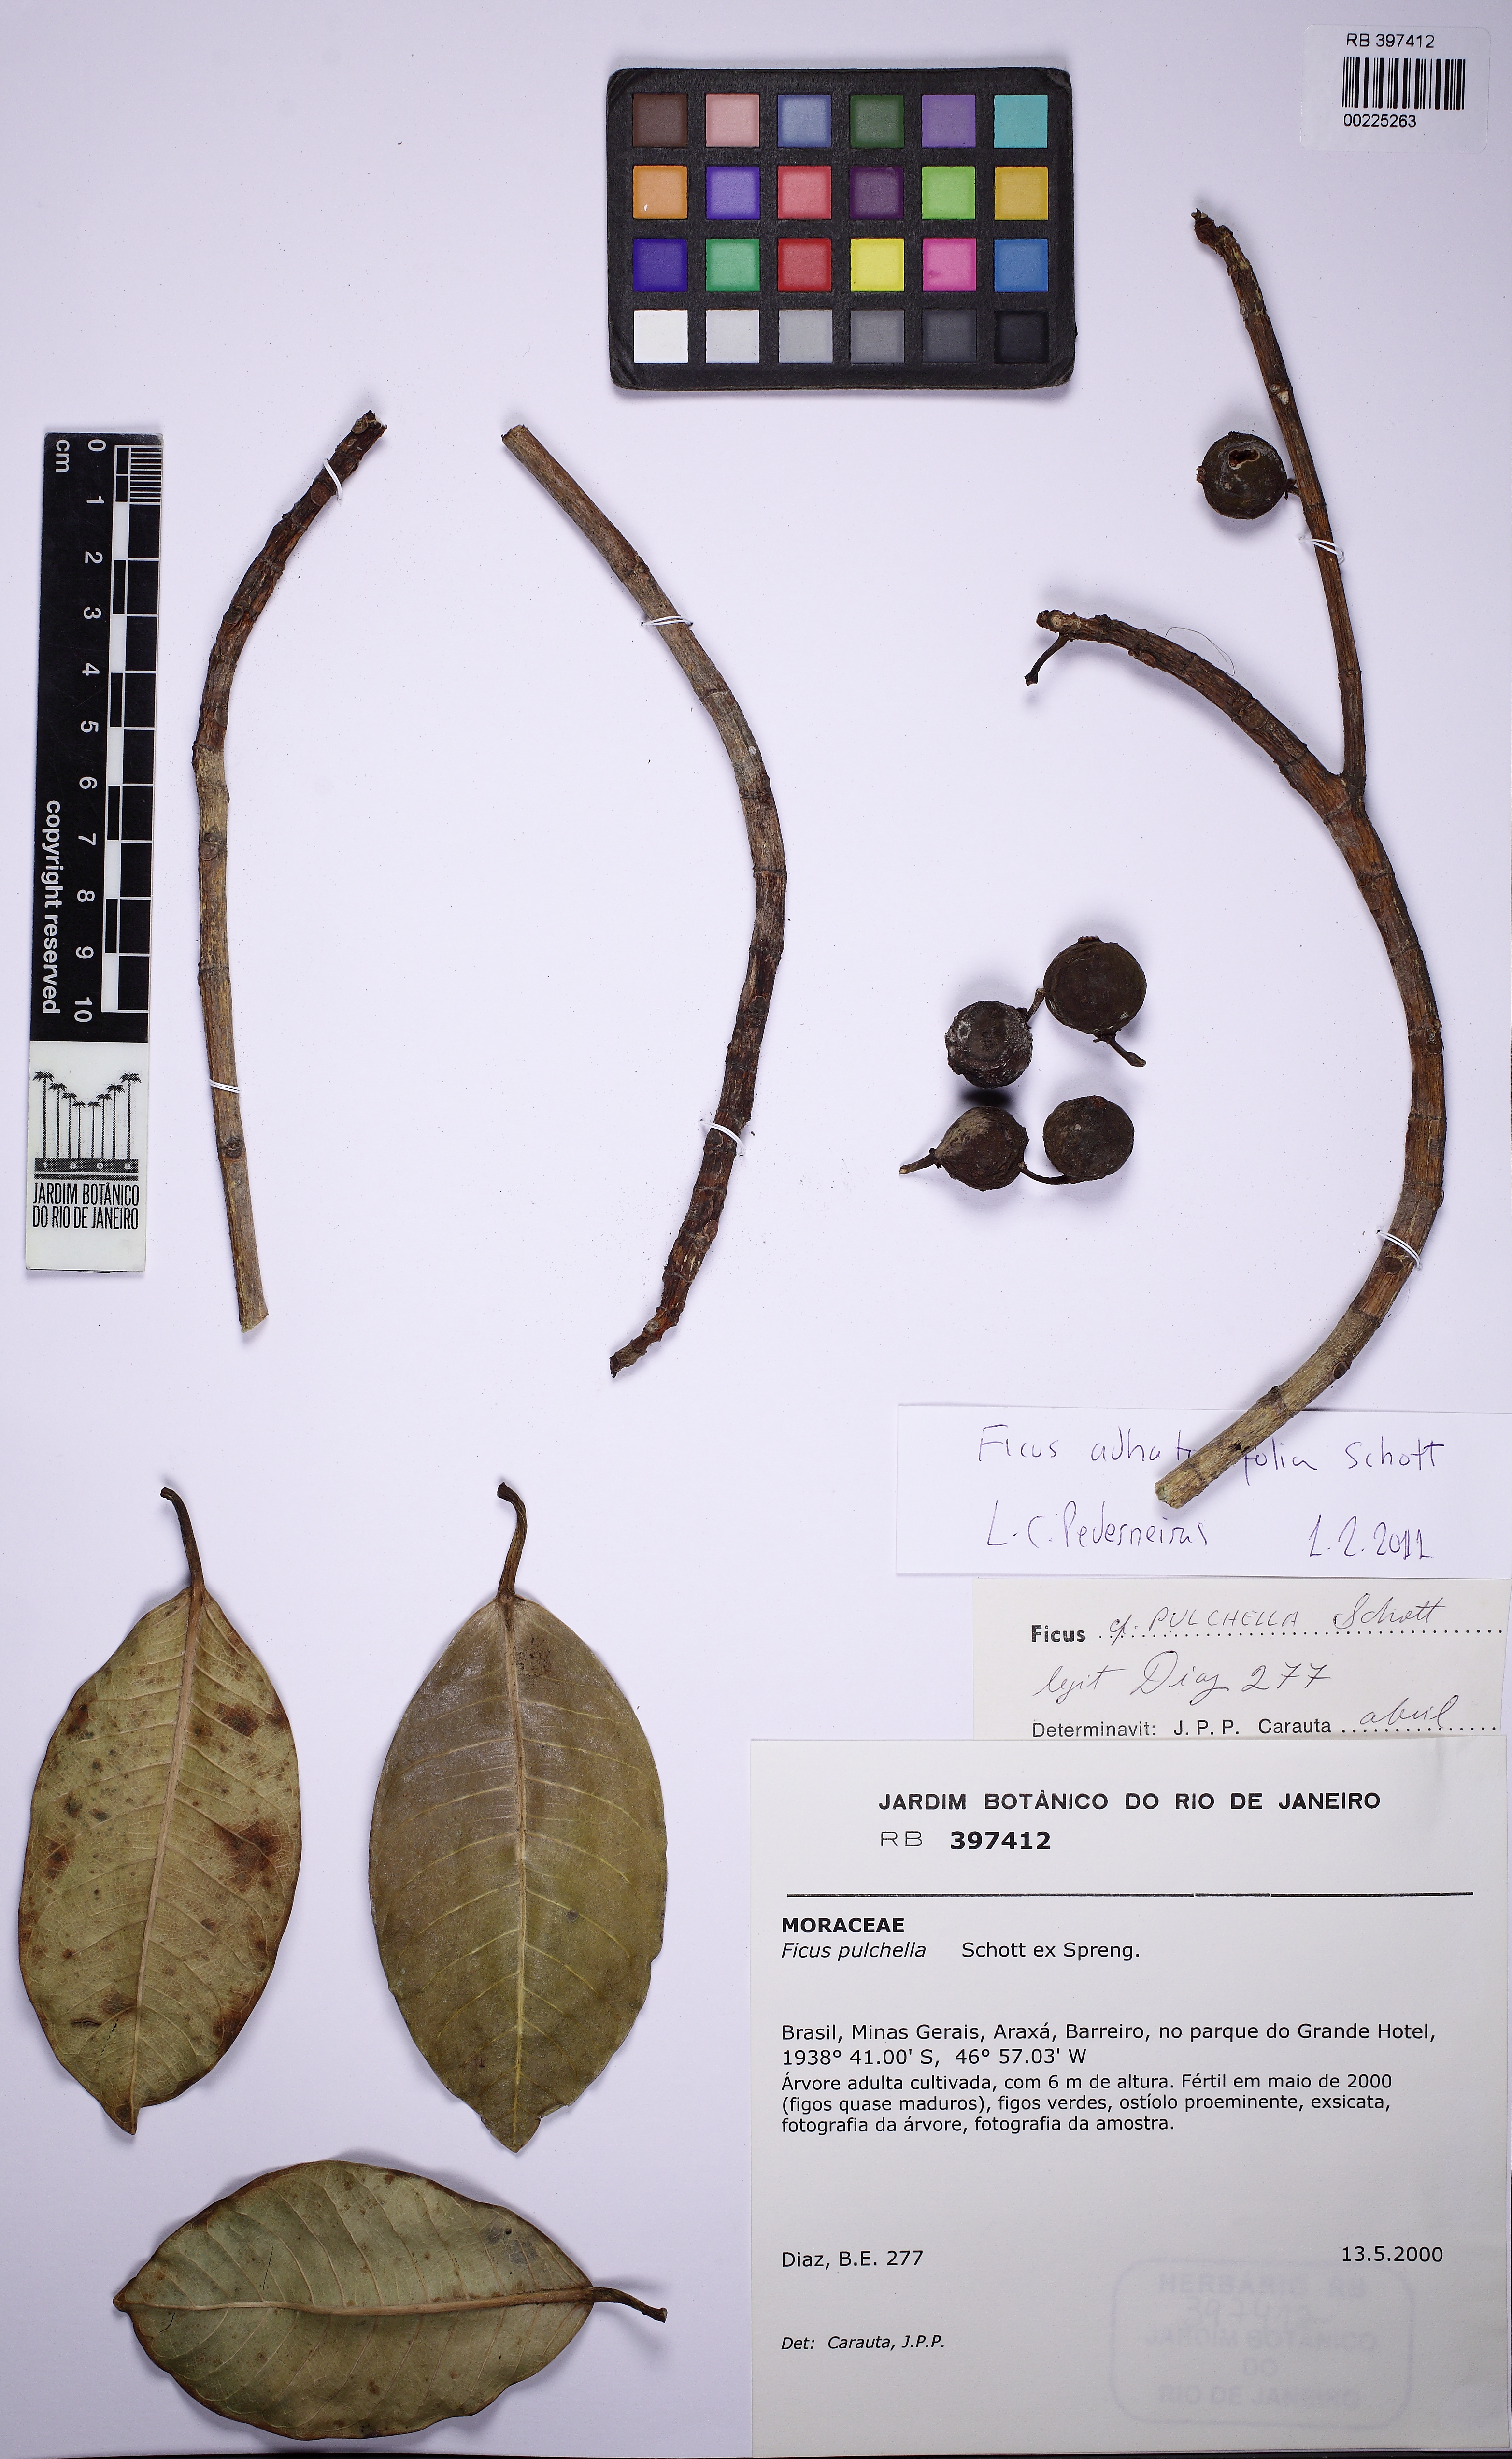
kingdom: Plantae
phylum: Tracheophyta
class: Magnoliopsida
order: Rosales
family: Moraceae
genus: Ficus
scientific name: Ficus adhatodifolia
